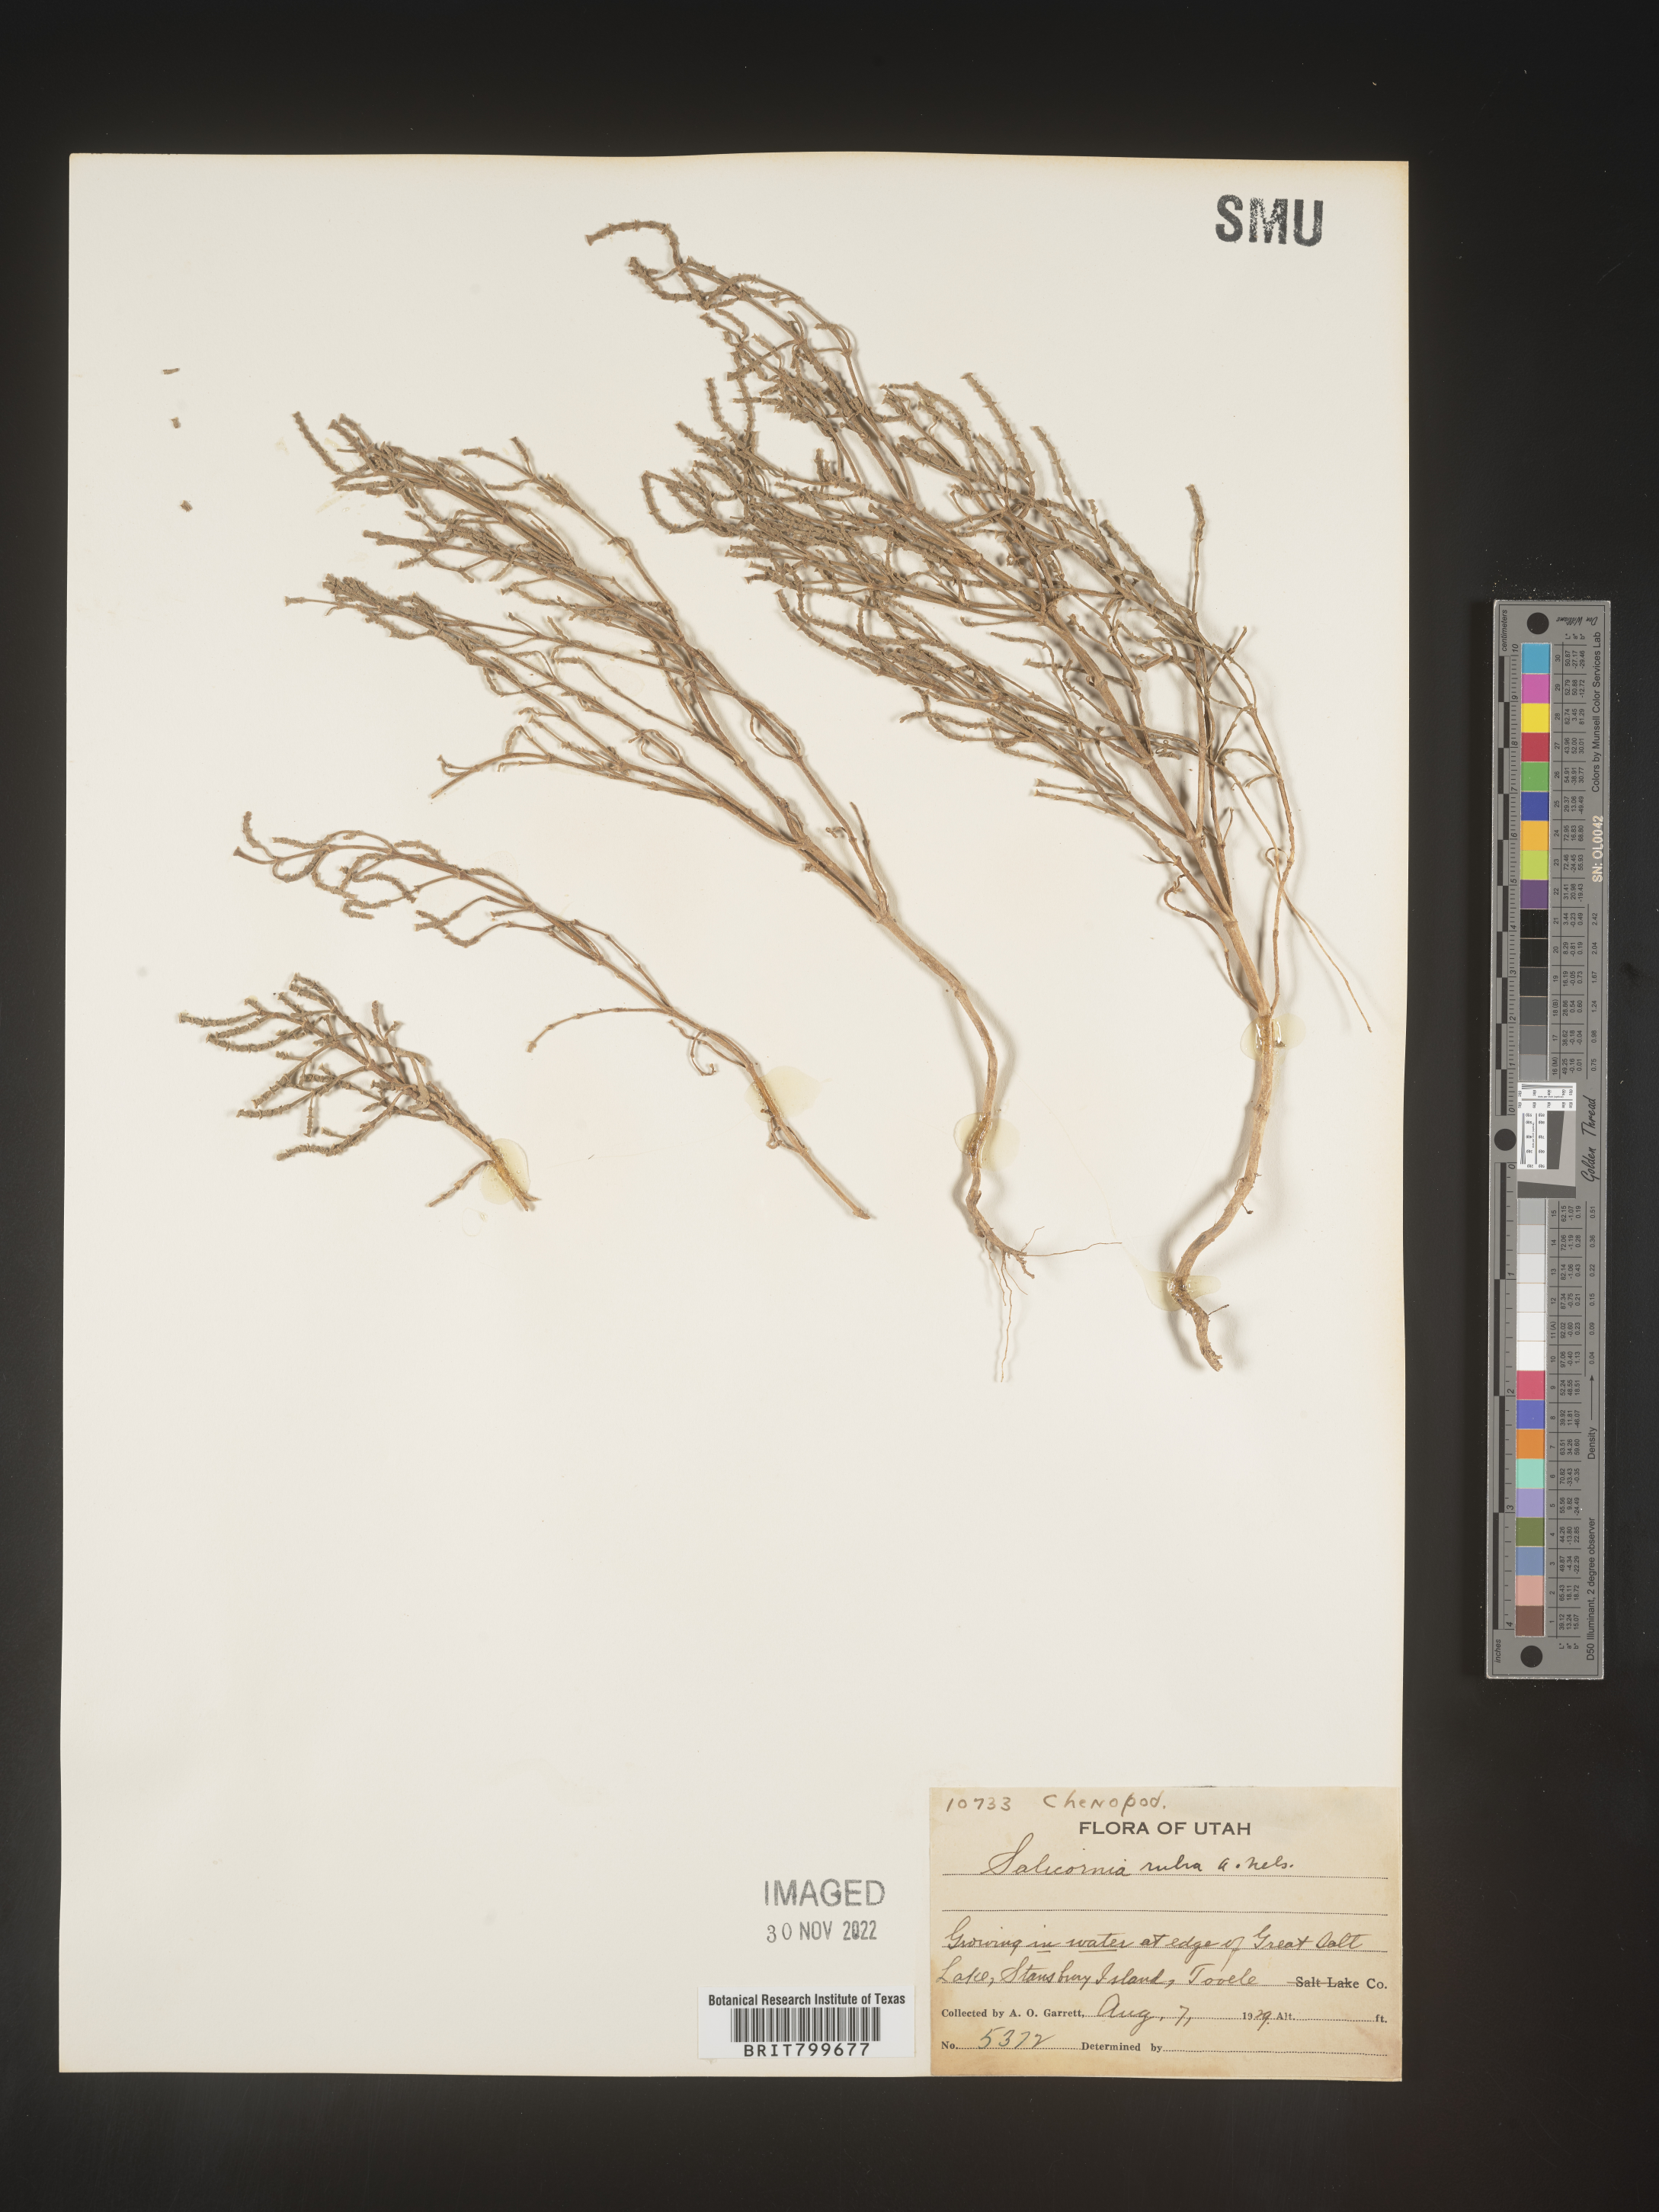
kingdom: Plantae
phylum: Tracheophyta
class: Magnoliopsida
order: Caryophyllales
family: Amaranthaceae
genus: Salicornia
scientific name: Salicornia
